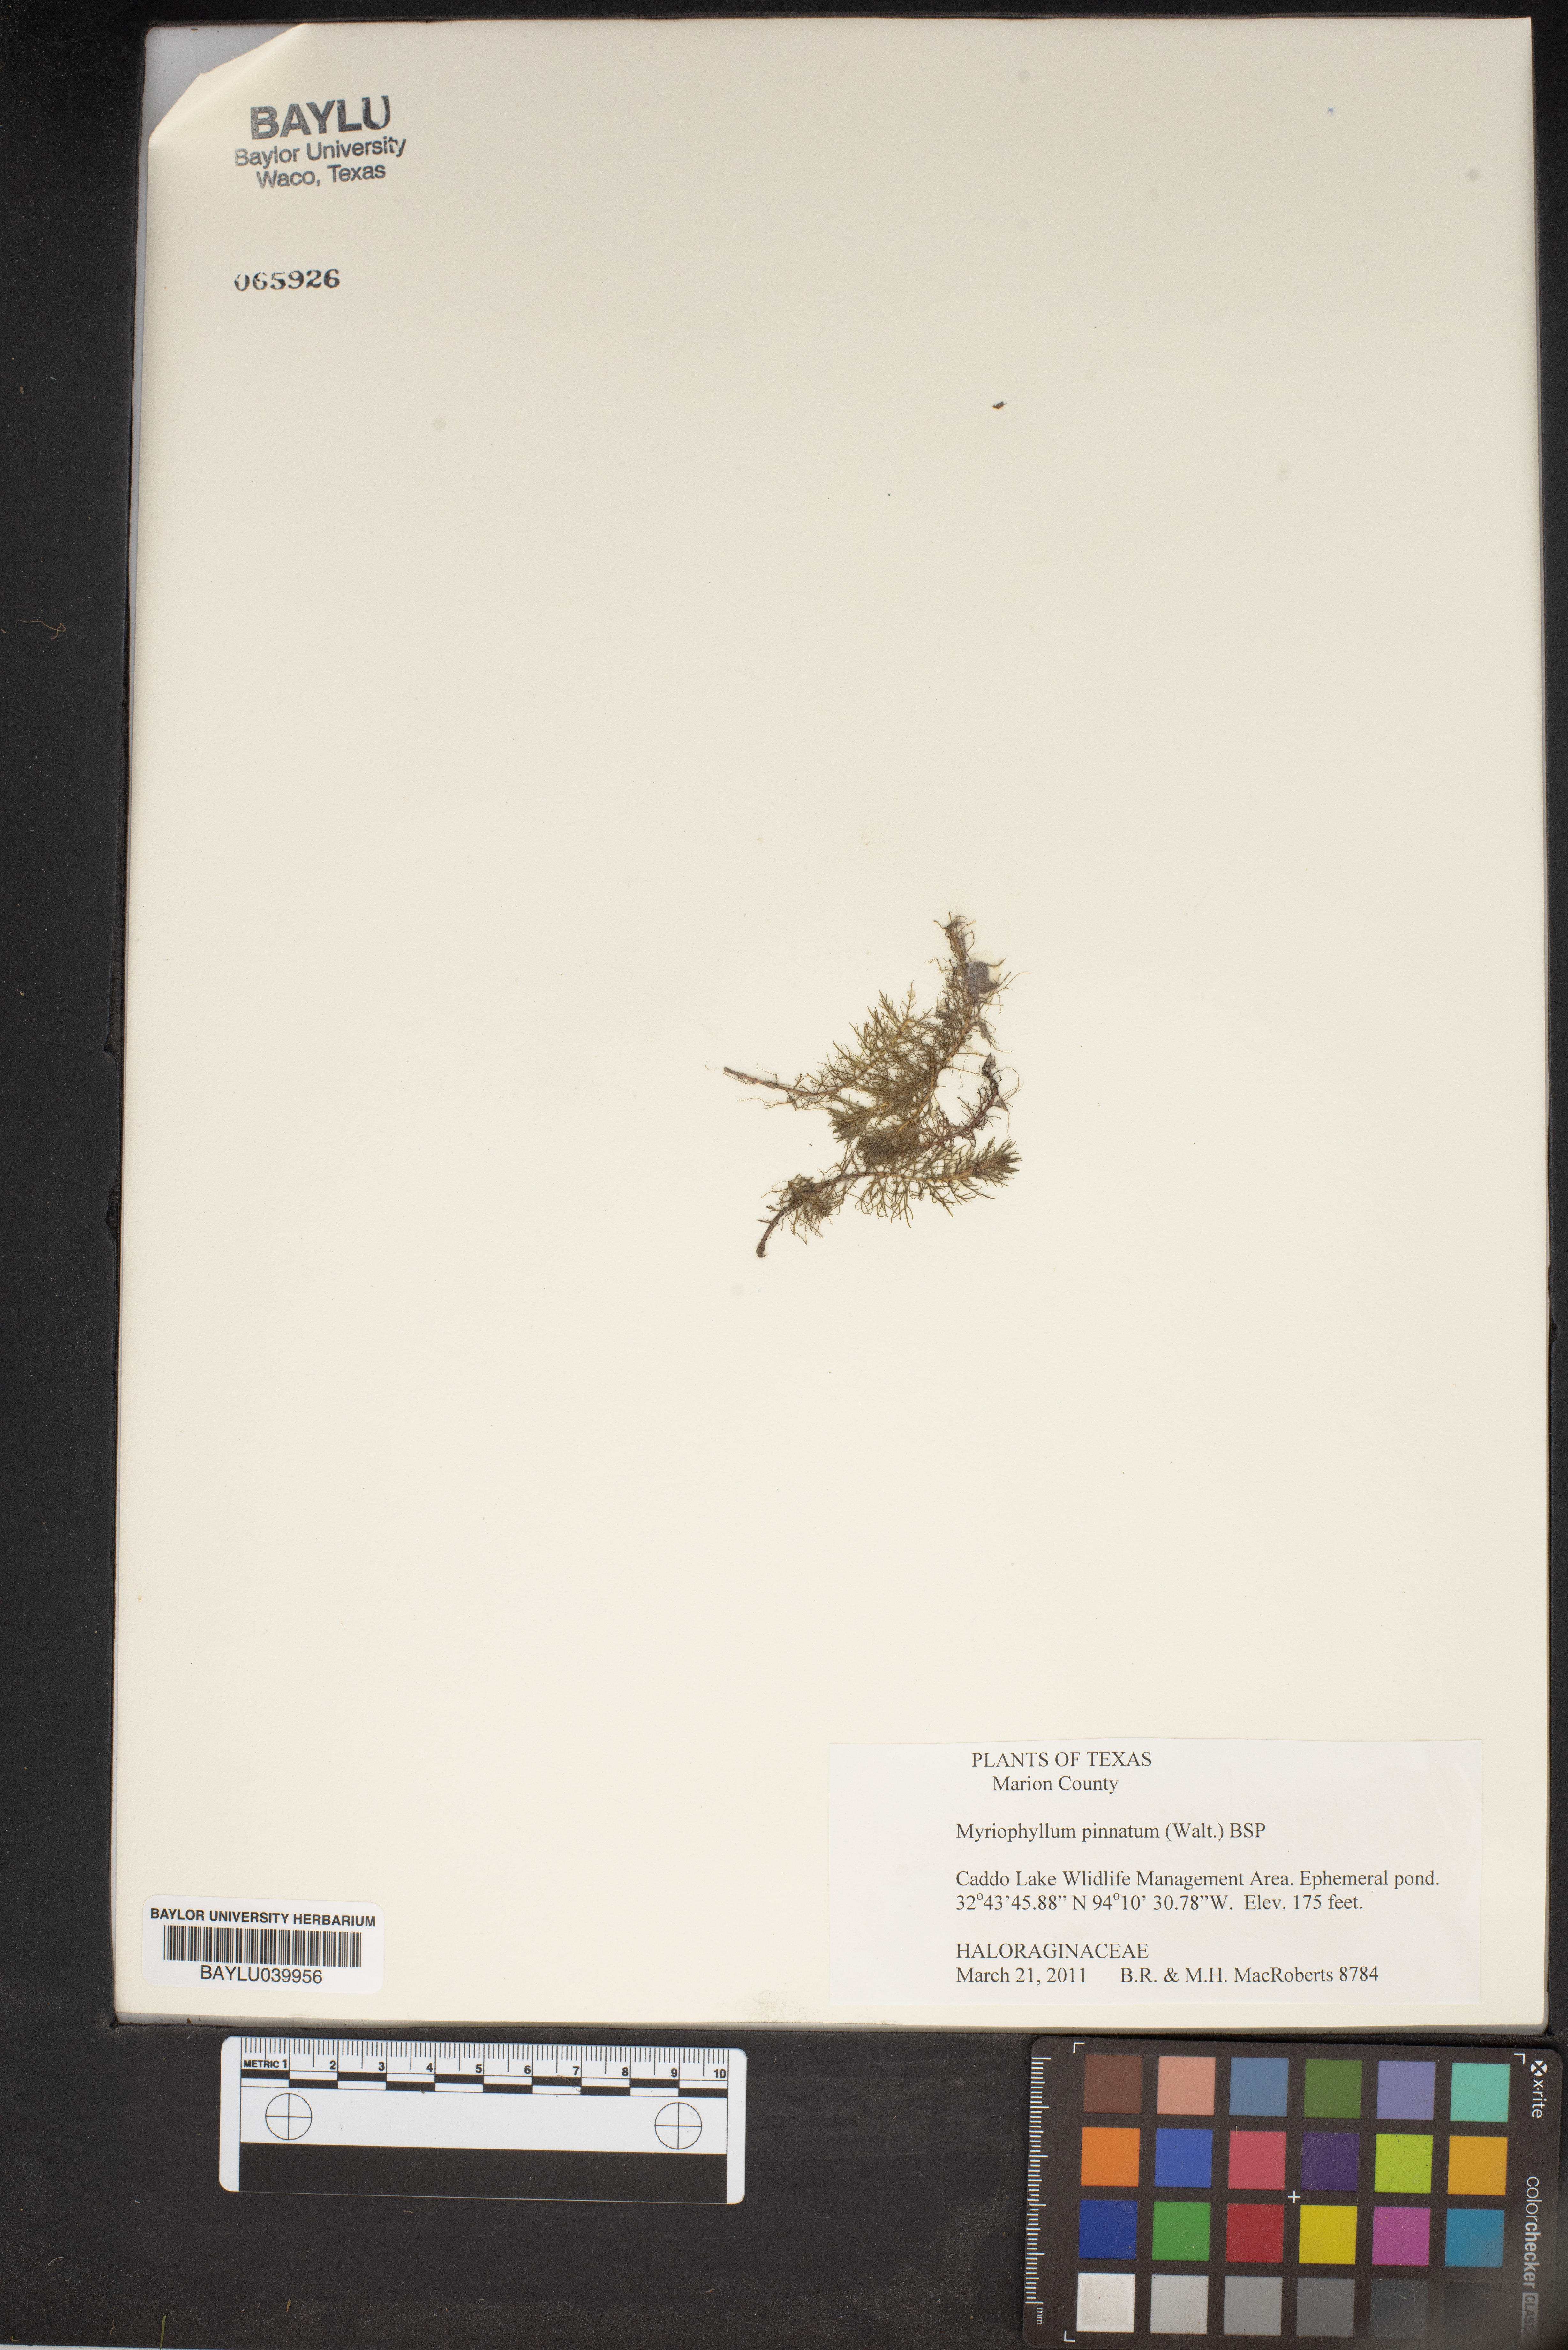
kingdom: Plantae
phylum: Tracheophyta
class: Magnoliopsida
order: Saxifragales
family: Haloragaceae
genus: Myriophyllum
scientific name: Myriophyllum pinnatum
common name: Cut-leaved water-milfoil
